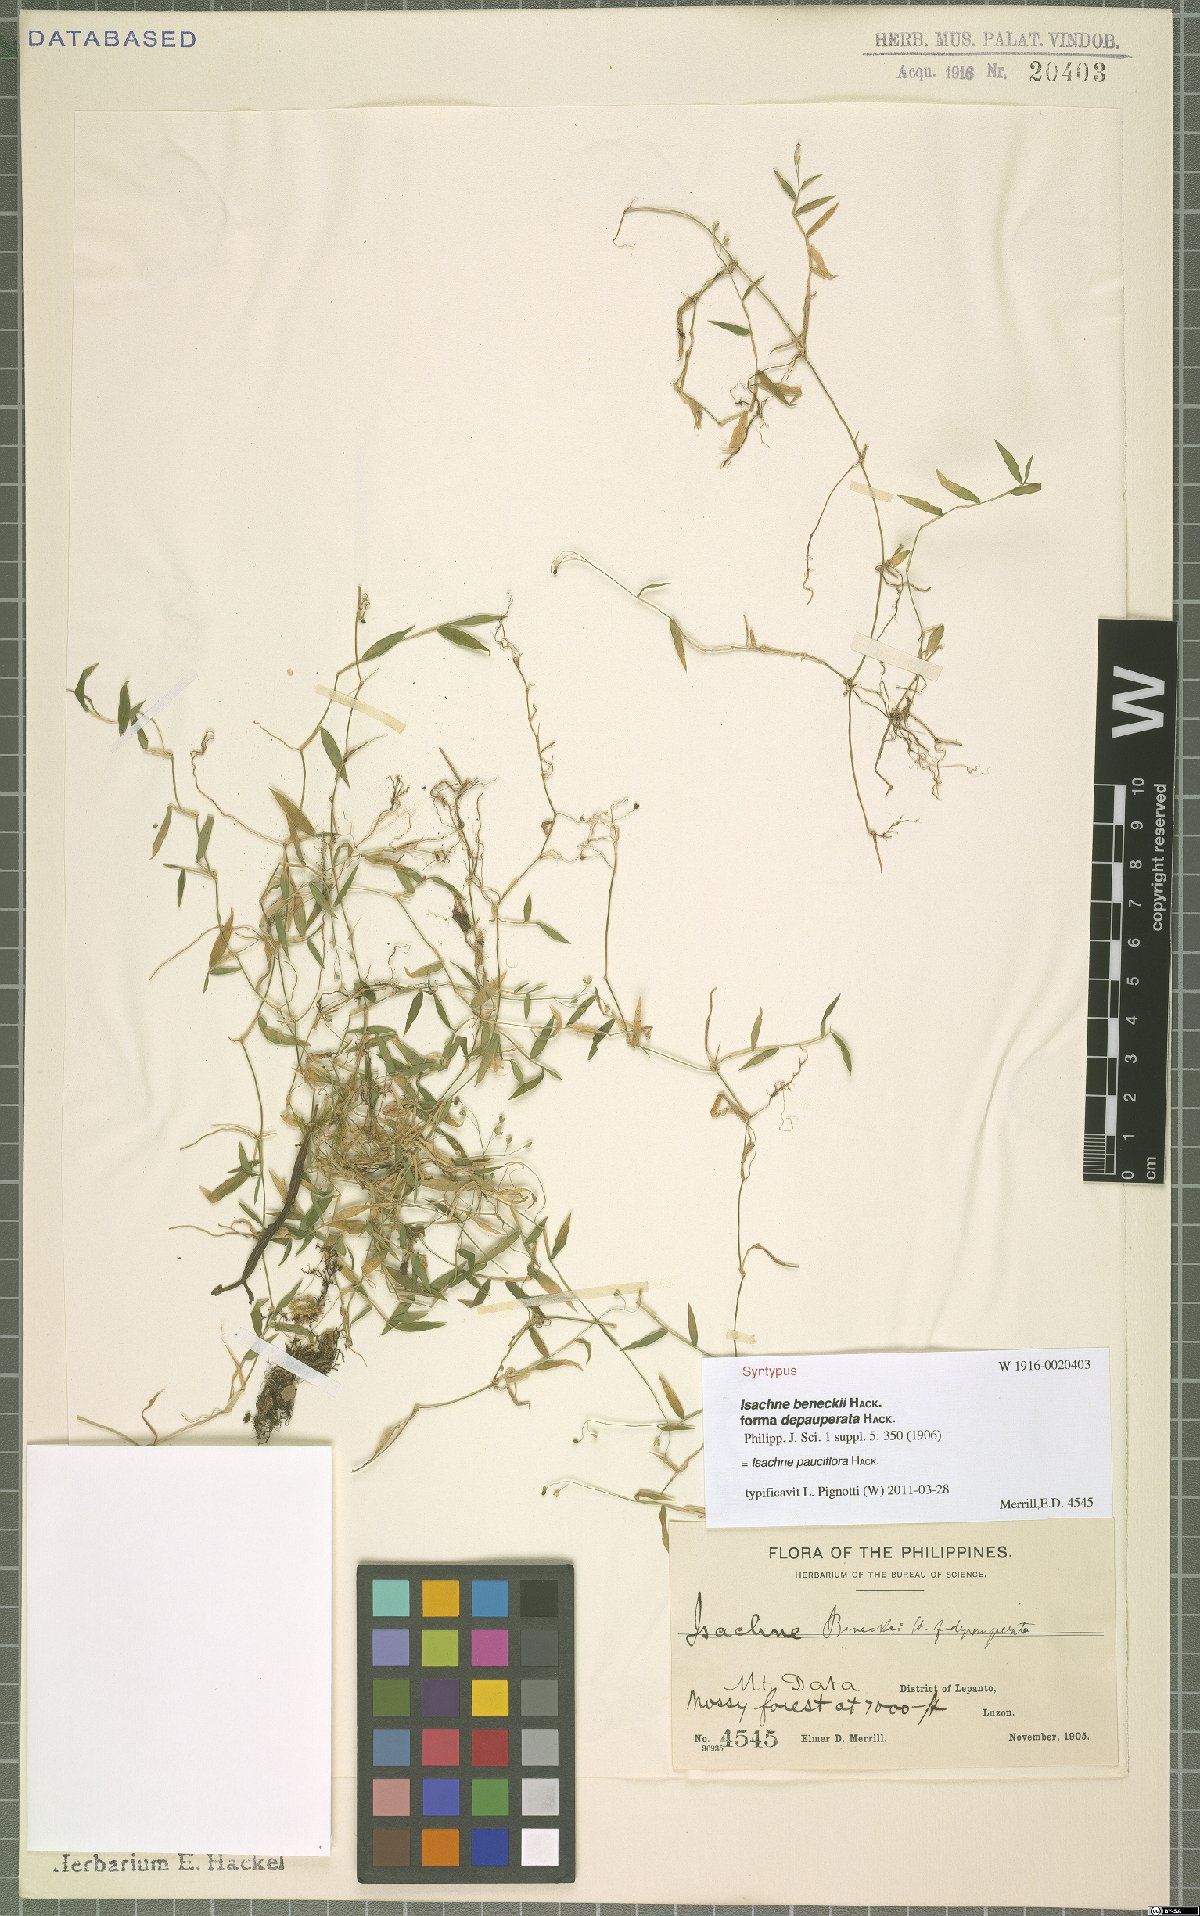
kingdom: Plantae
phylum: Tracheophyta
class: Liliopsida
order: Poales
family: Poaceae
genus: Isachne
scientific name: Isachne myosotis
